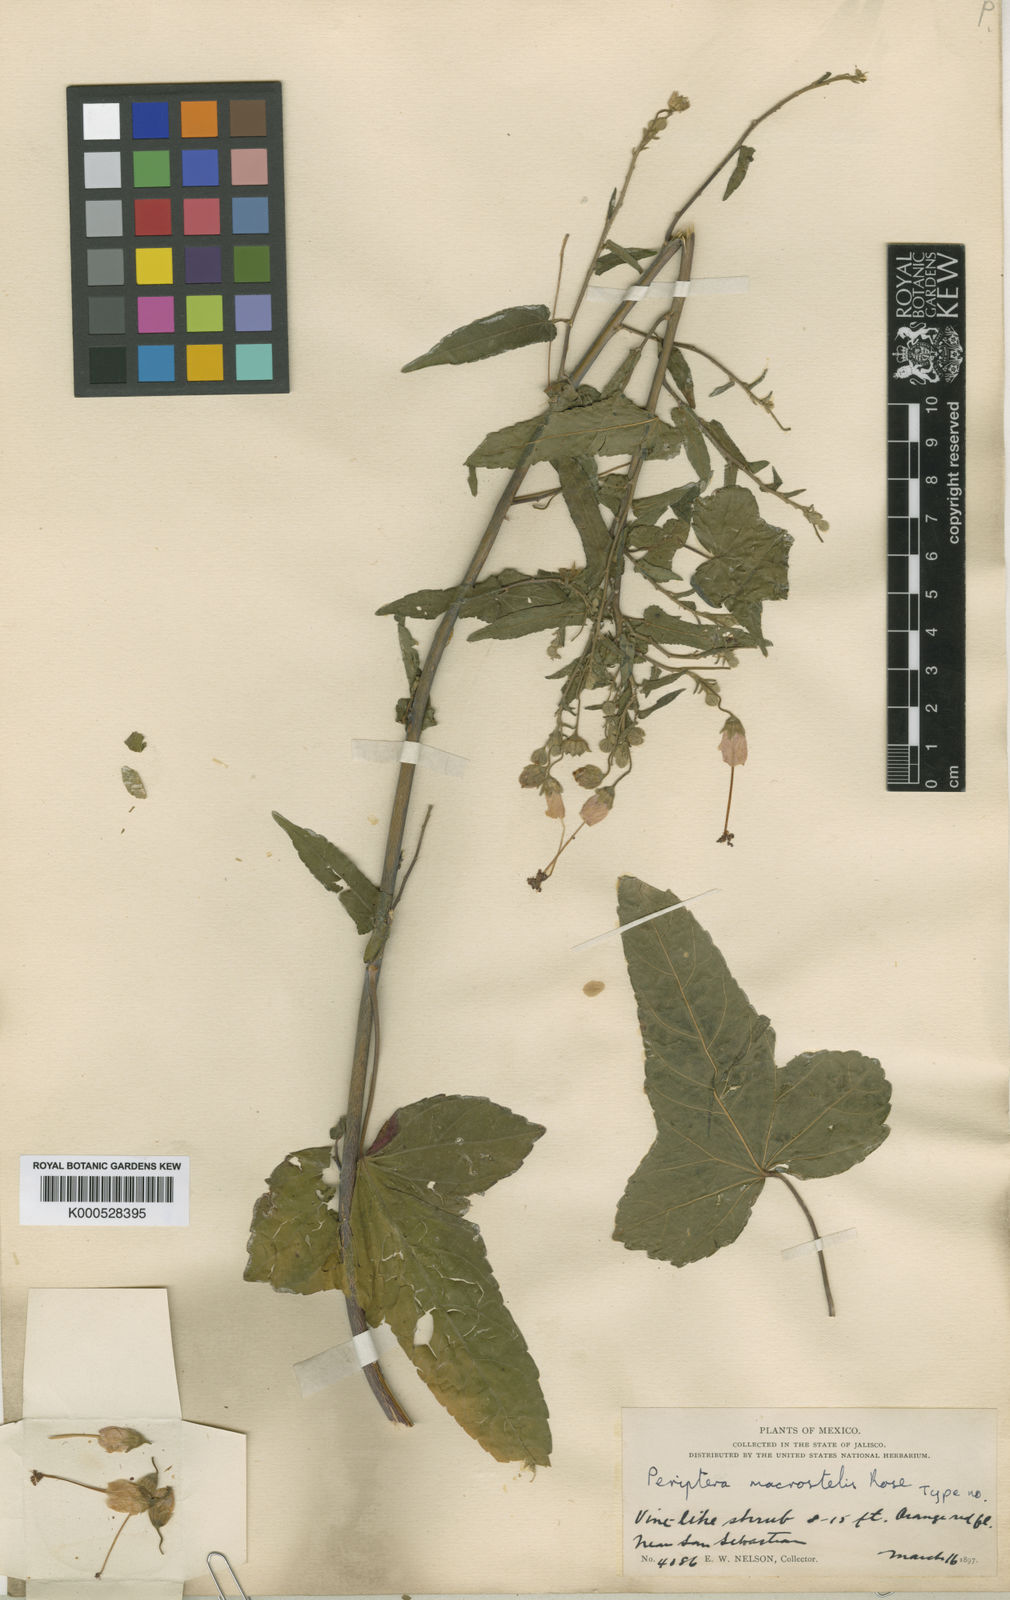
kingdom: Plantae
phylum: Tracheophyta
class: Magnoliopsida
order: Malvales
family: Malvaceae
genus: Periptera
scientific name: Periptera macrostelis
